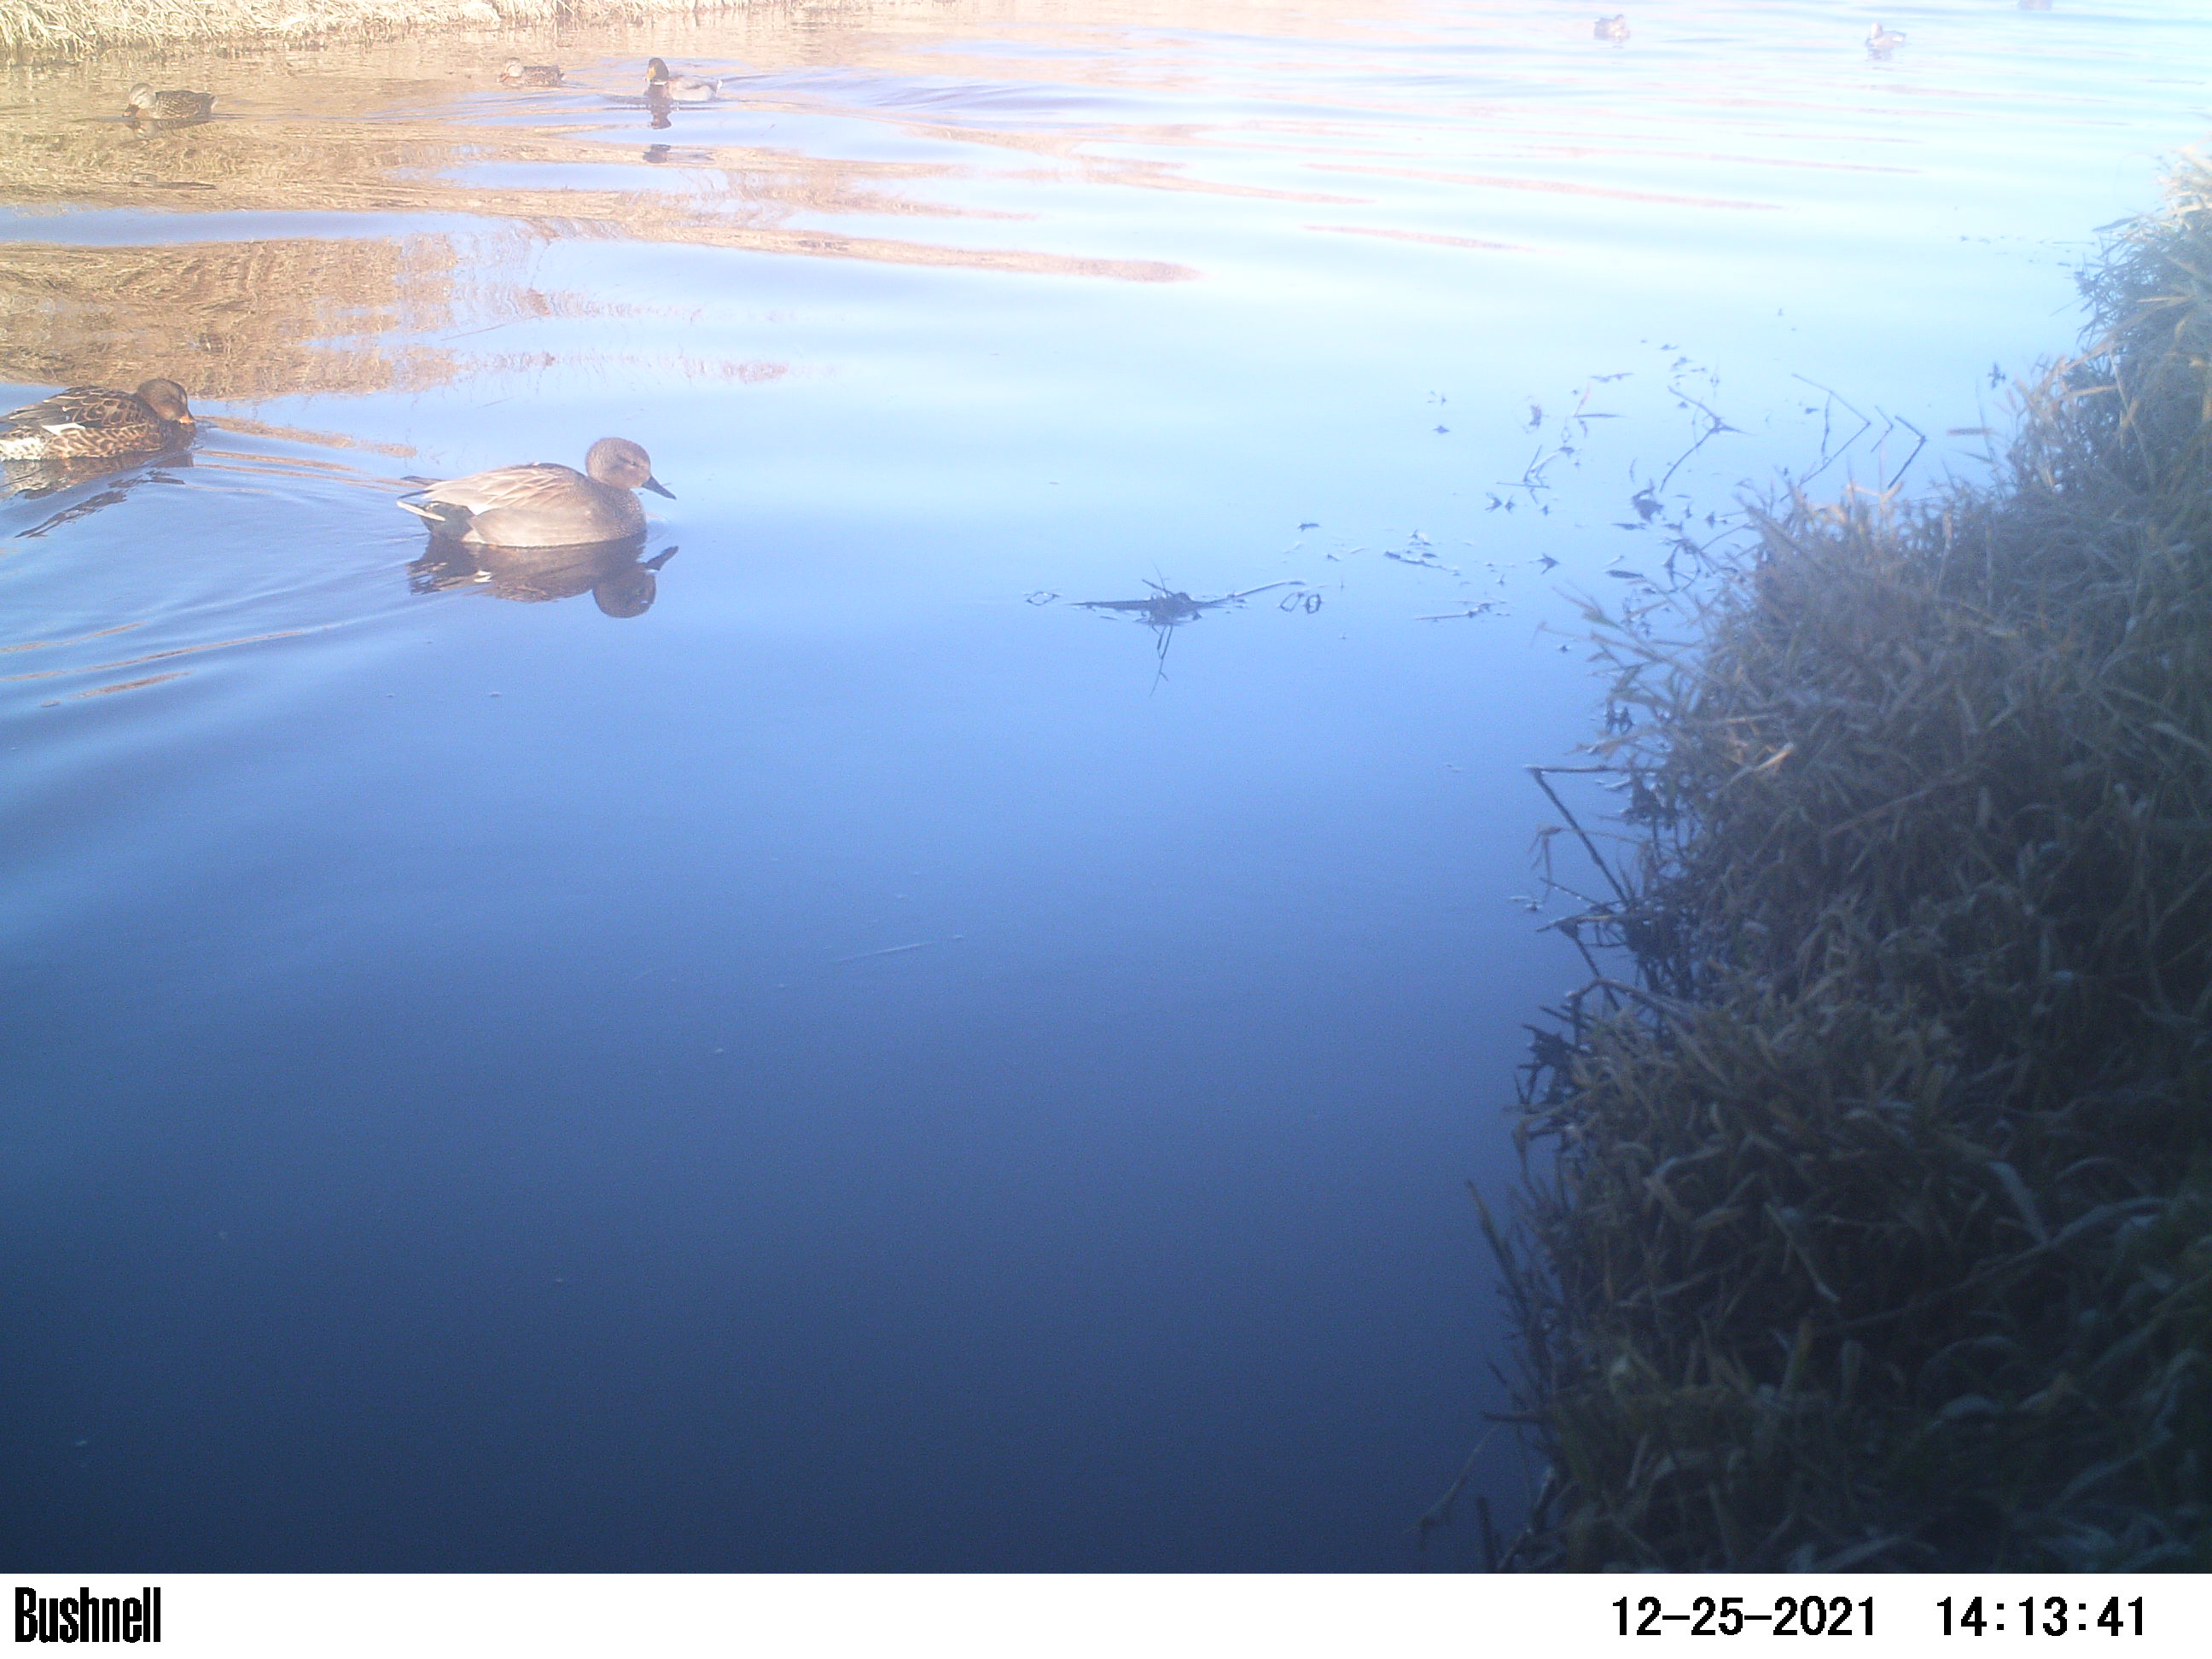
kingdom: Animalia
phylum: Chordata
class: Aves
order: Anseriformes
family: Anatidae
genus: Anas
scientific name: Anas
